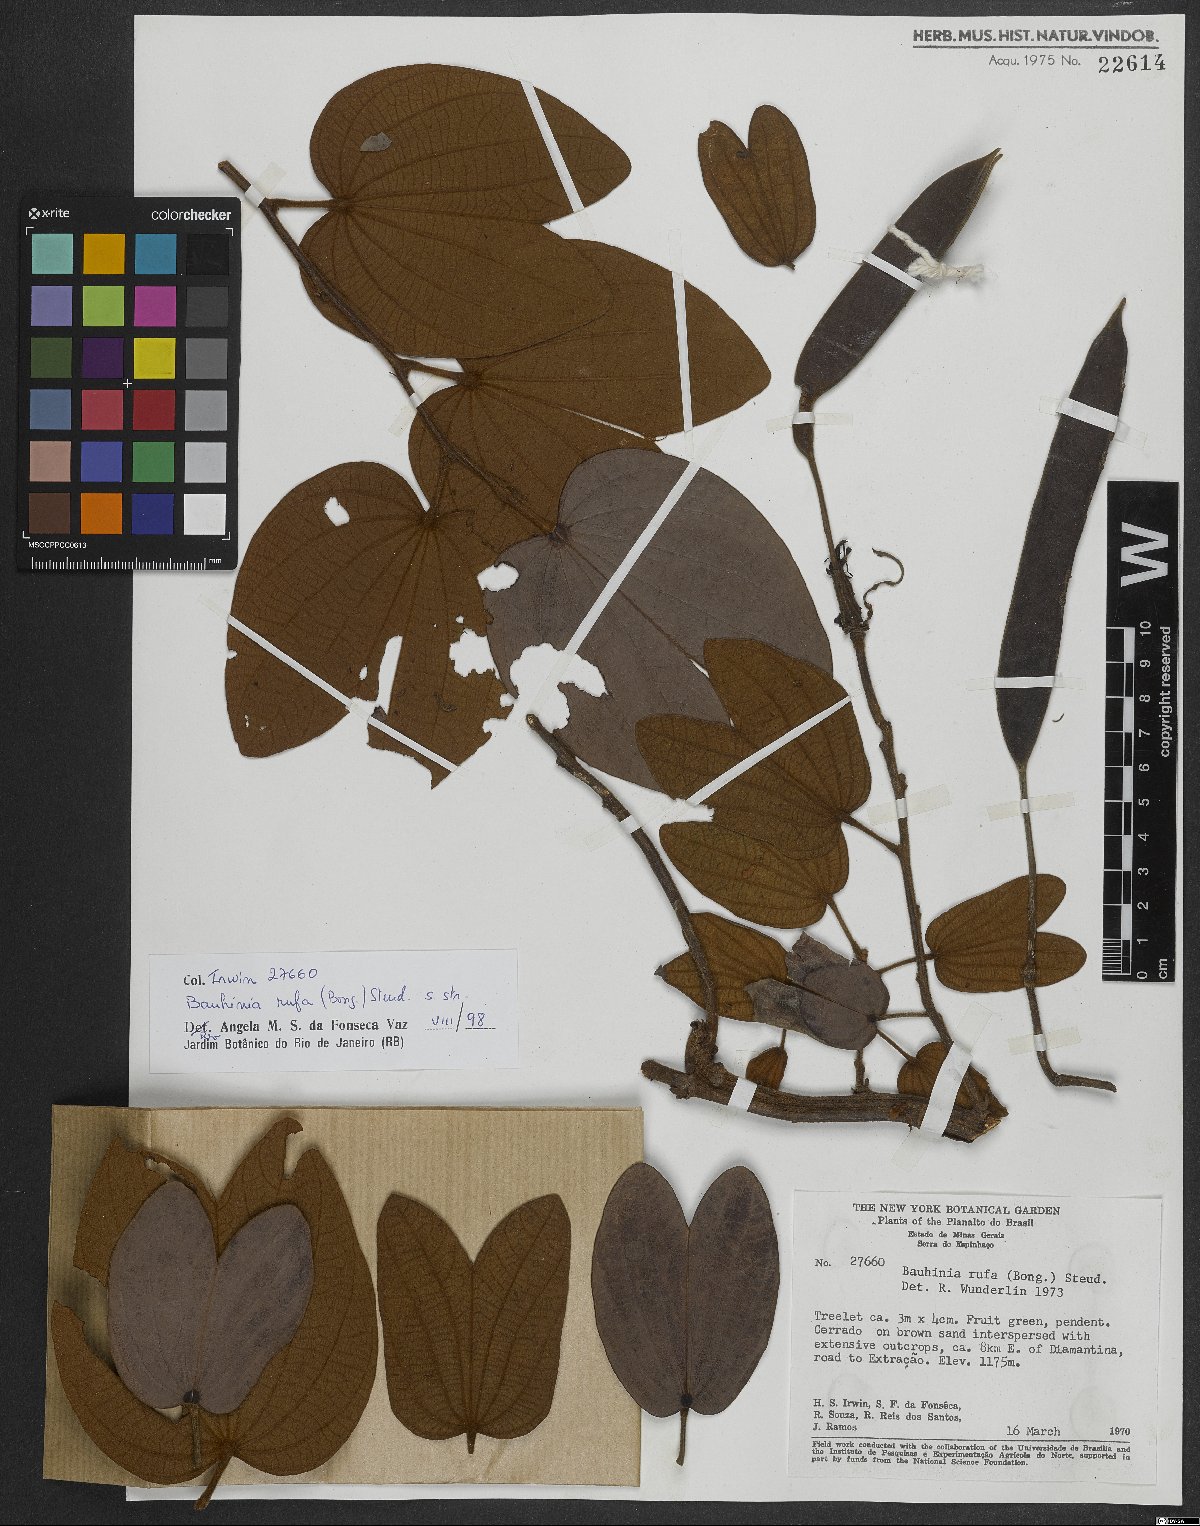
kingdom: Plantae
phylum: Tracheophyta
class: Magnoliopsida
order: Fabales
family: Fabaceae
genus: Bauhinia
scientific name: Bauhinia rufa
